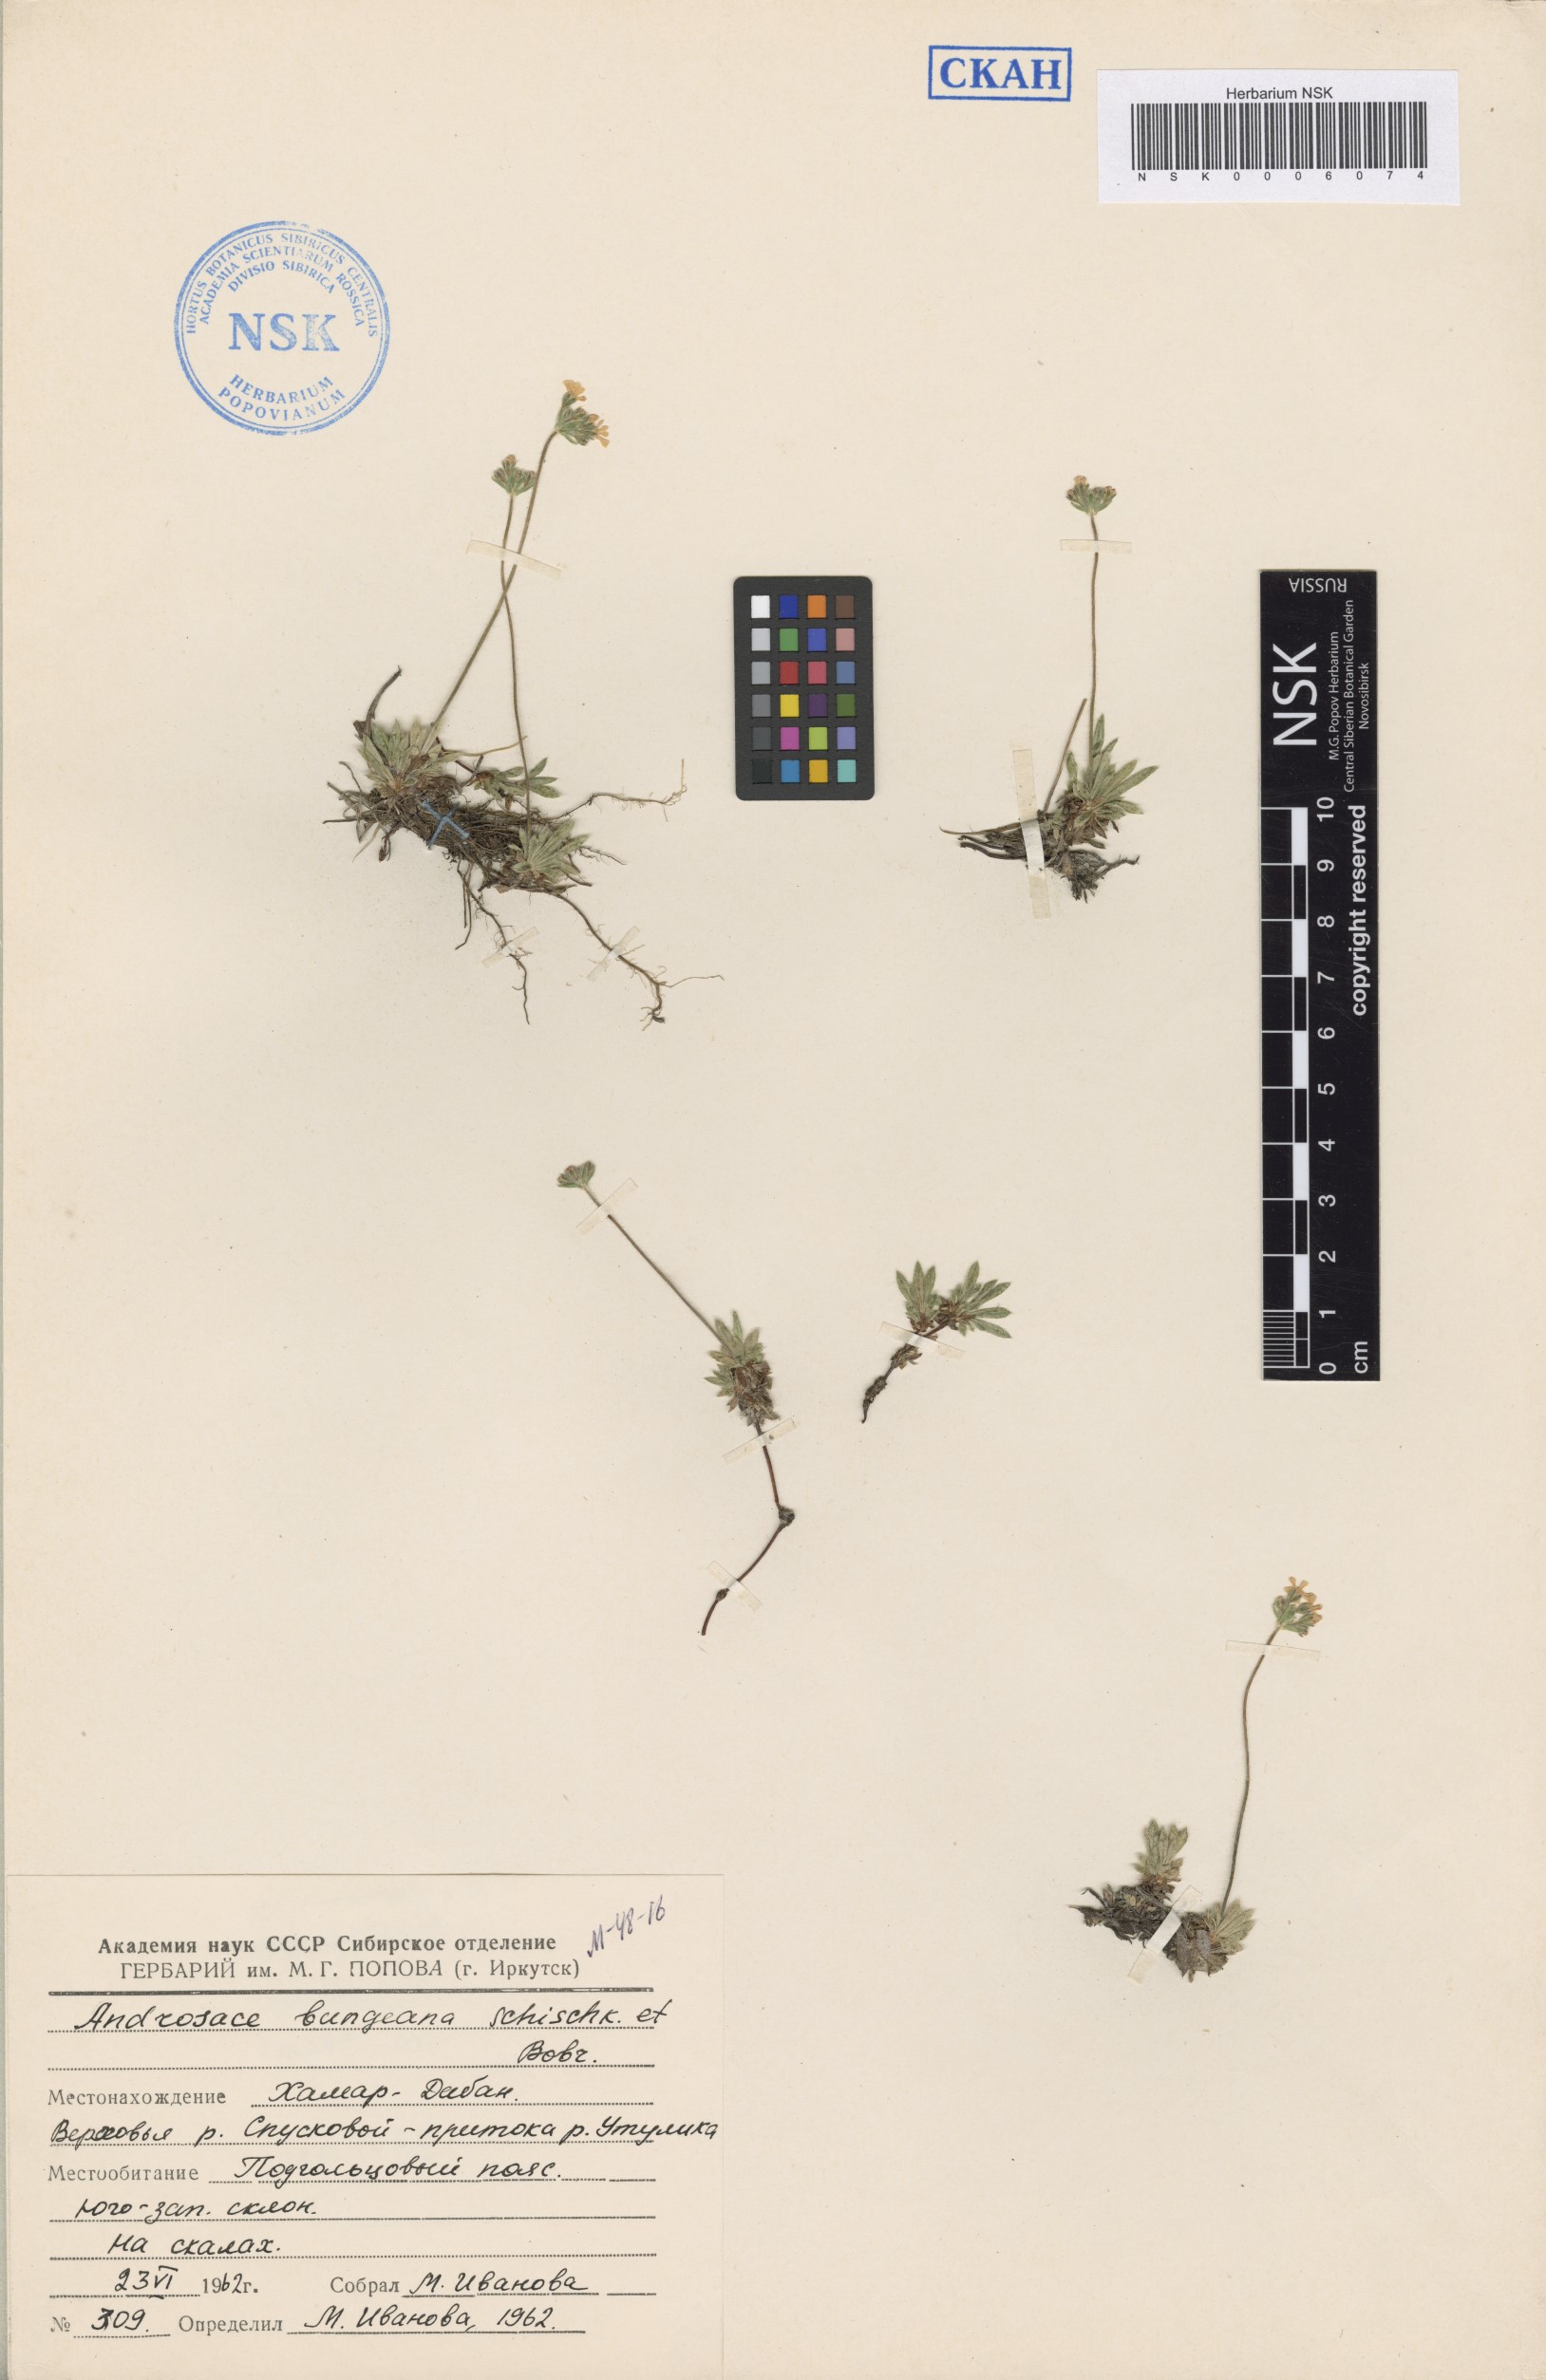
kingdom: Plantae
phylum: Tracheophyta
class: Magnoliopsida
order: Ericales
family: Primulaceae
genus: Androsace
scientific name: Androsace bungeana
